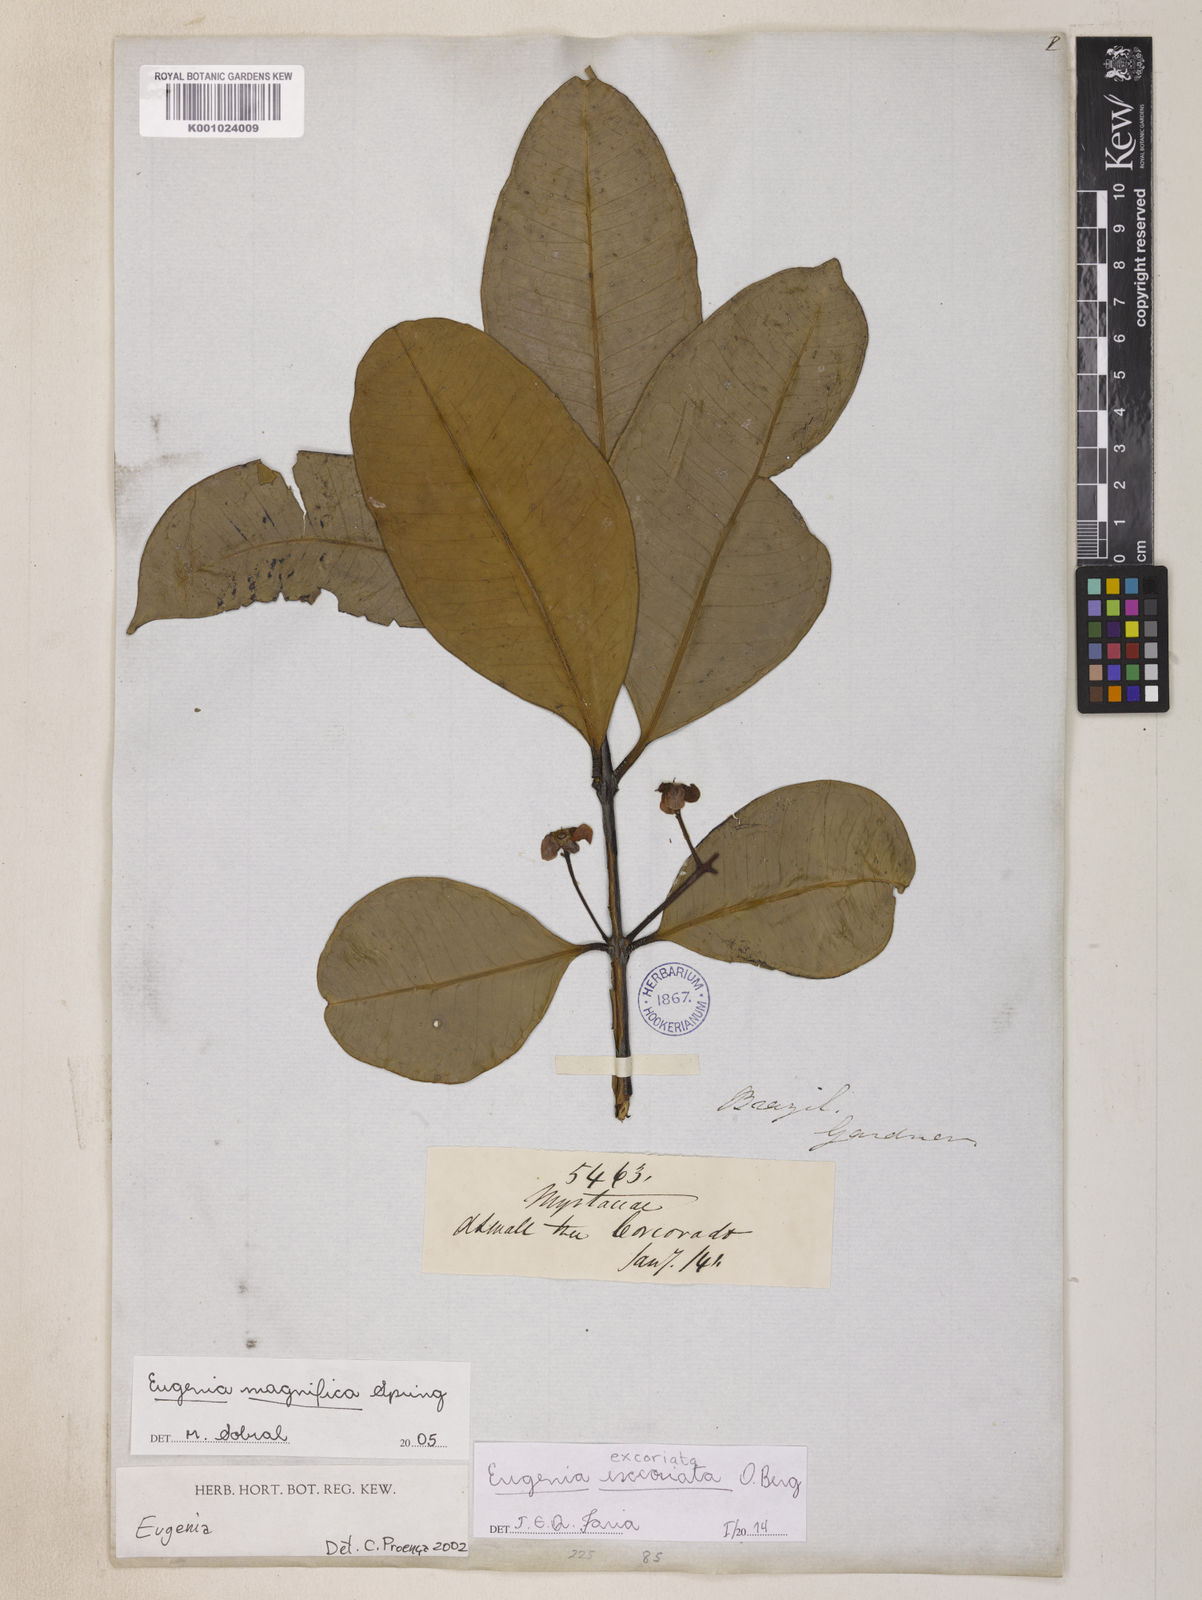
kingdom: Plantae
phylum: Tracheophyta
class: Magnoliopsida
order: Myrtales
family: Myrtaceae
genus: Eugenia
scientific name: Eugenia excoriata
